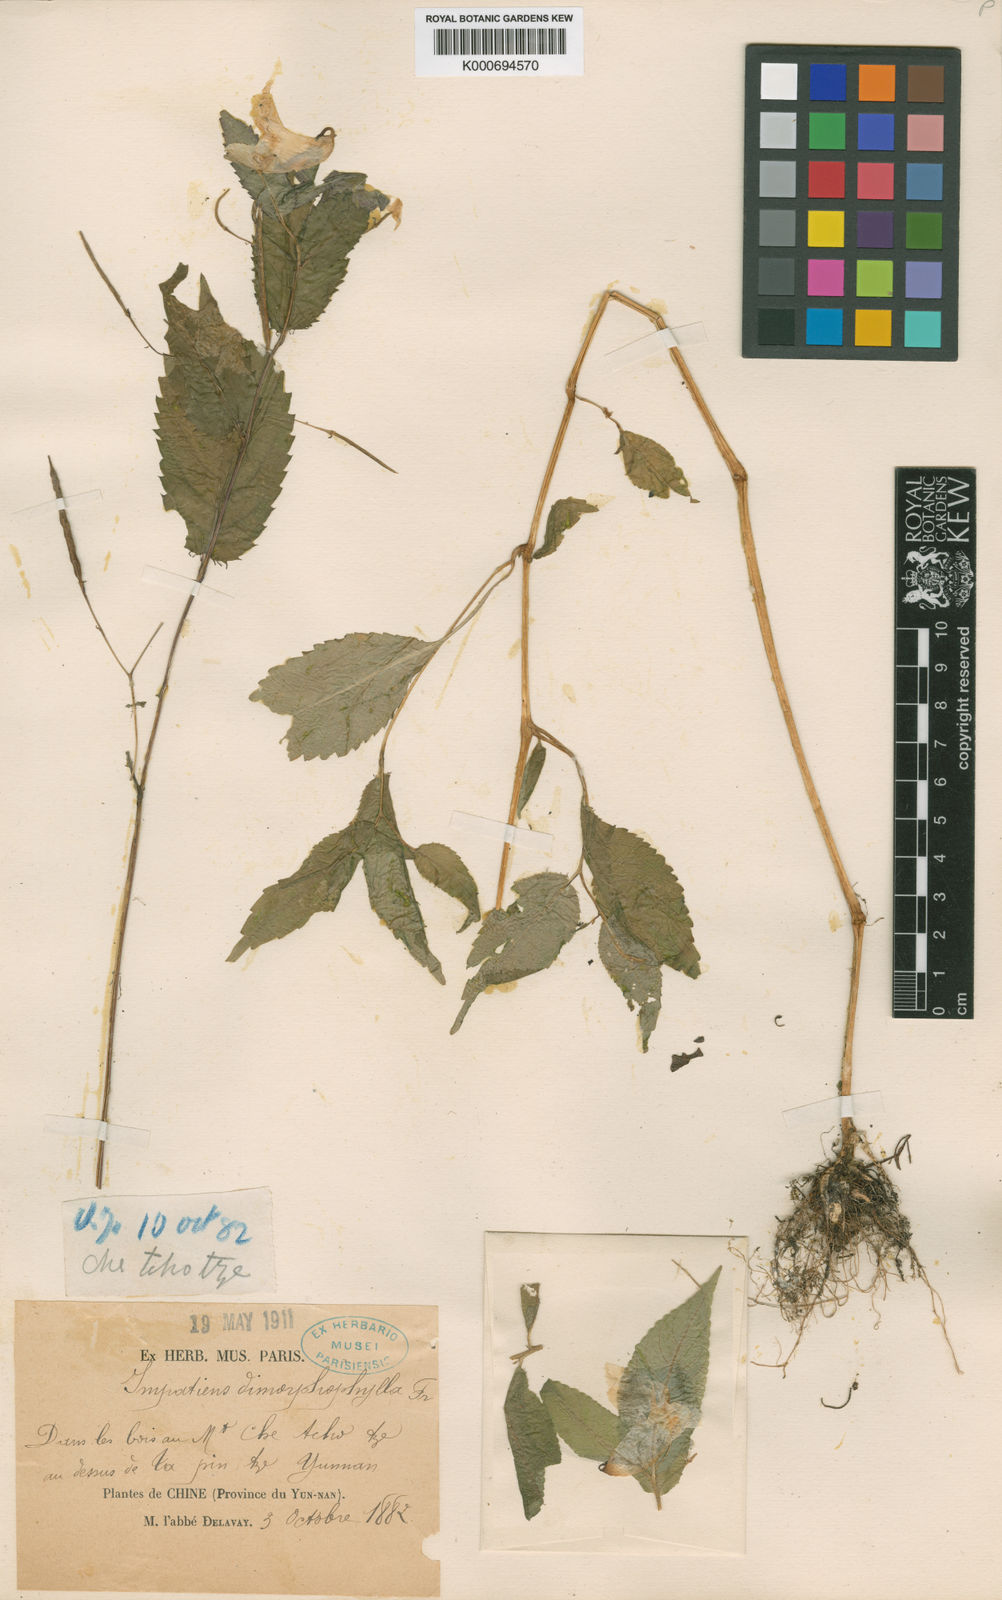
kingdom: Plantae
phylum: Tracheophyta
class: Magnoliopsida
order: Ericales
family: Balsaminaceae
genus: Impatiens
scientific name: Impatiens dimorphophylla
